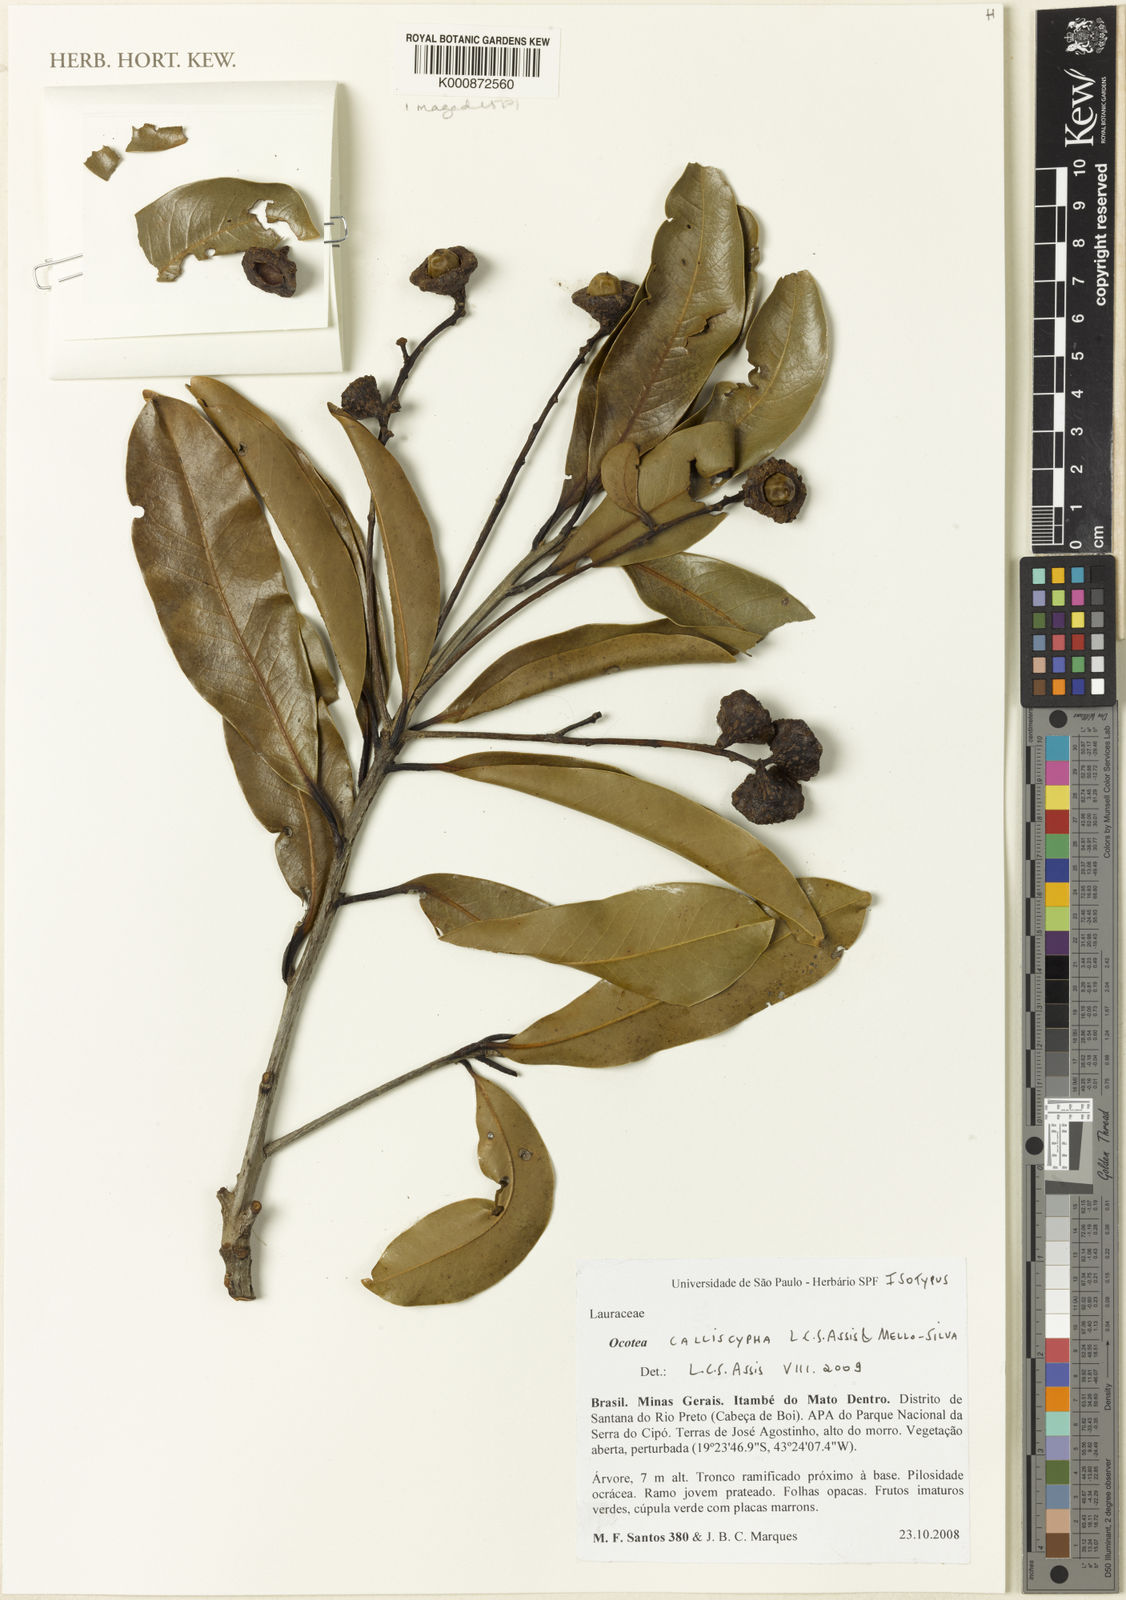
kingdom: Plantae
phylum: Tracheophyta
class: Magnoliopsida
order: Laurales
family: Lauraceae
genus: Ocotea
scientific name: Ocotea calliscypha
